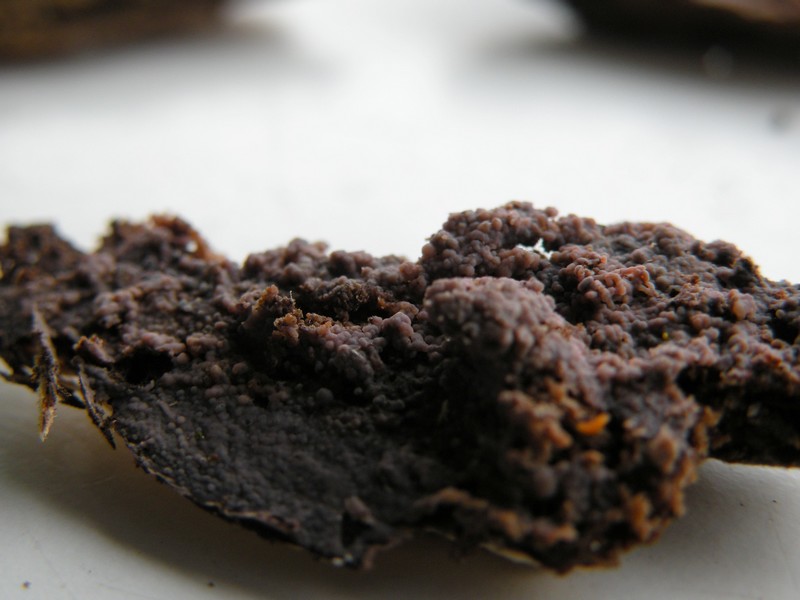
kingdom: Fungi
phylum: Basidiomycota
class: Agaricomycetes
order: Cantharellales
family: Tulasnellaceae
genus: Tulasnella
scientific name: Tulasnella violea
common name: violet ballonhinde
